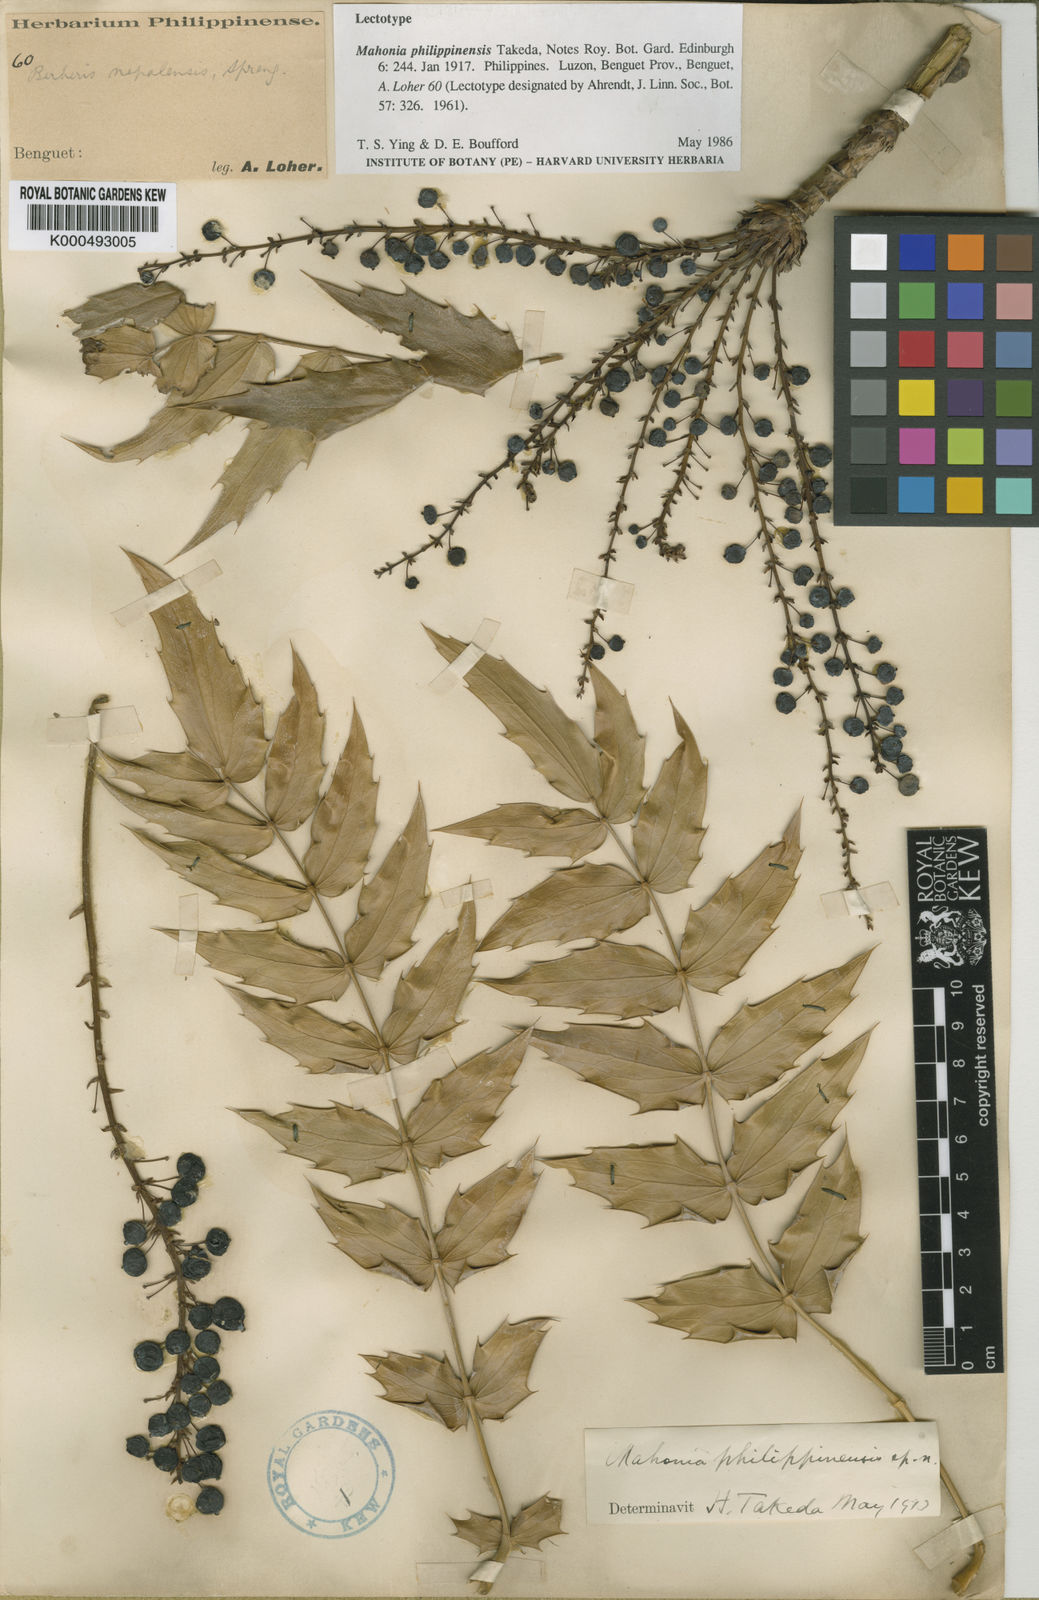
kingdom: Plantae
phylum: Tracheophyta
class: Magnoliopsida
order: Ranunculales
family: Berberidaceae
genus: Mahonia
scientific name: Mahonia philippinensis
